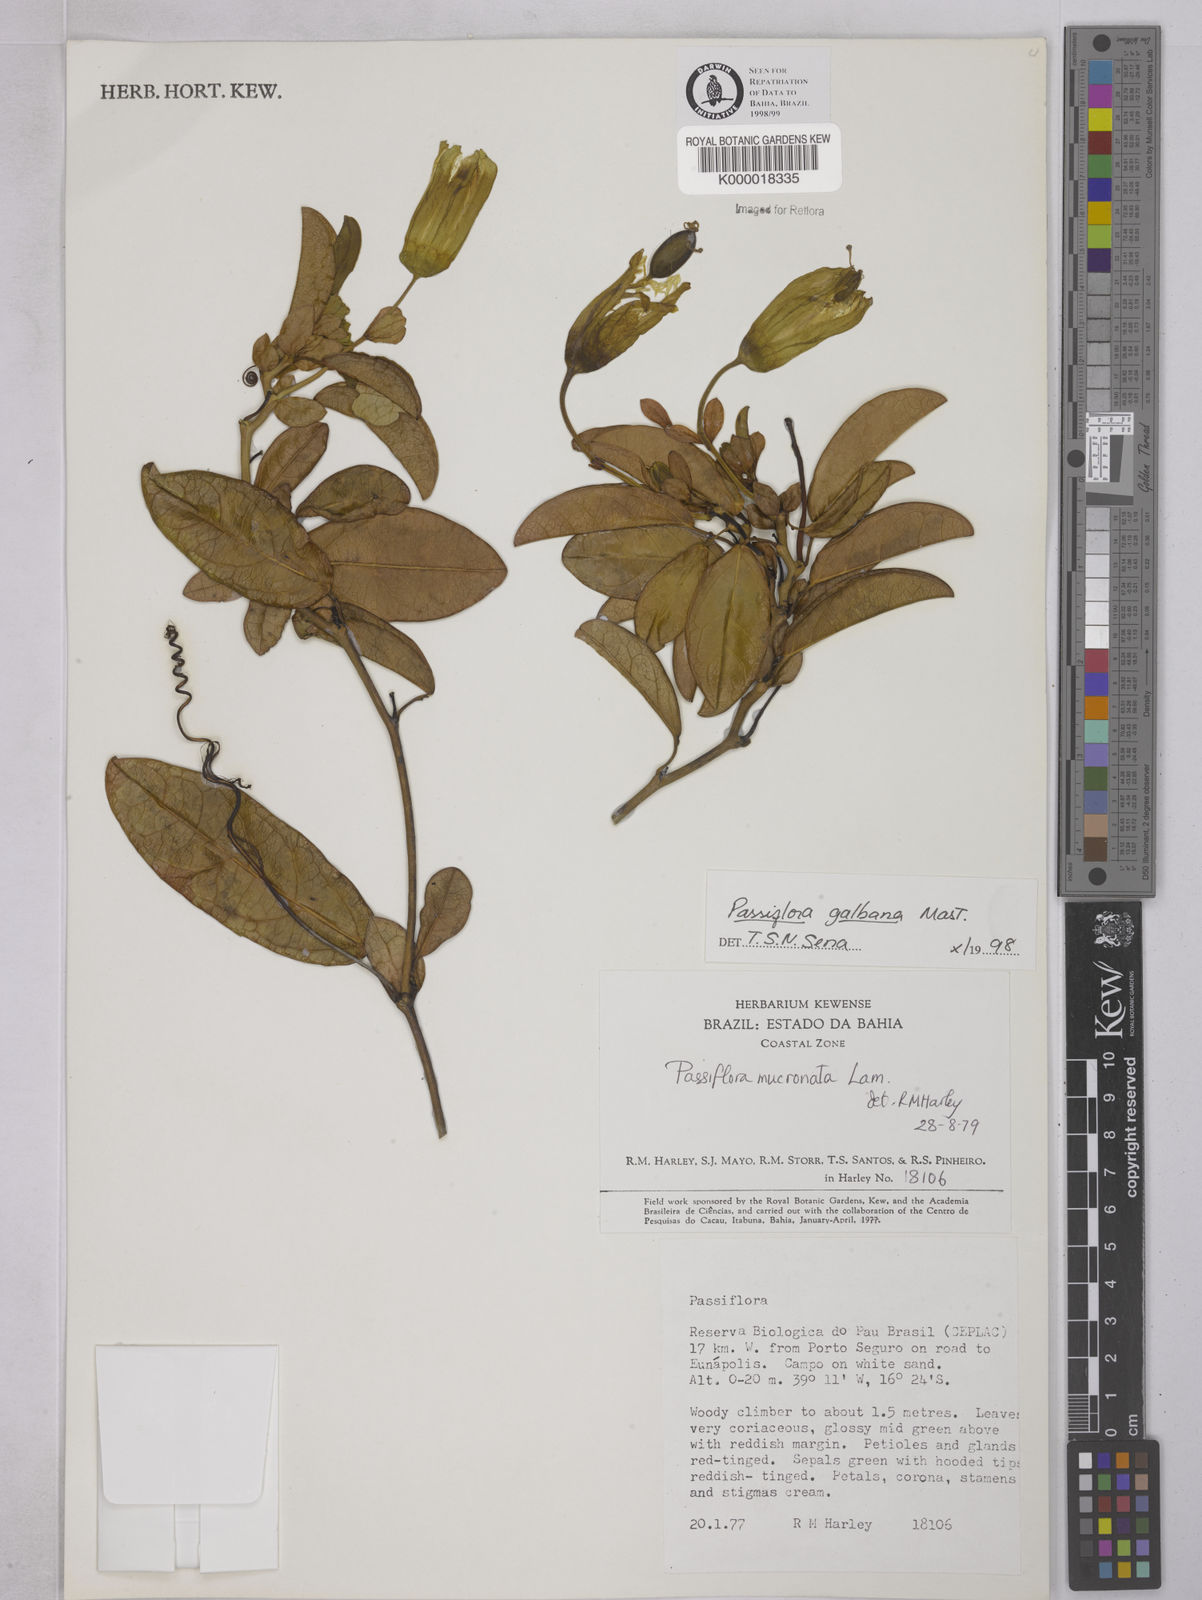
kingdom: Plantae
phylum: Tracheophyta
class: Magnoliopsida
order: Malpighiales
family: Passifloraceae
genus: Passiflora
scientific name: Passiflora silvestris
